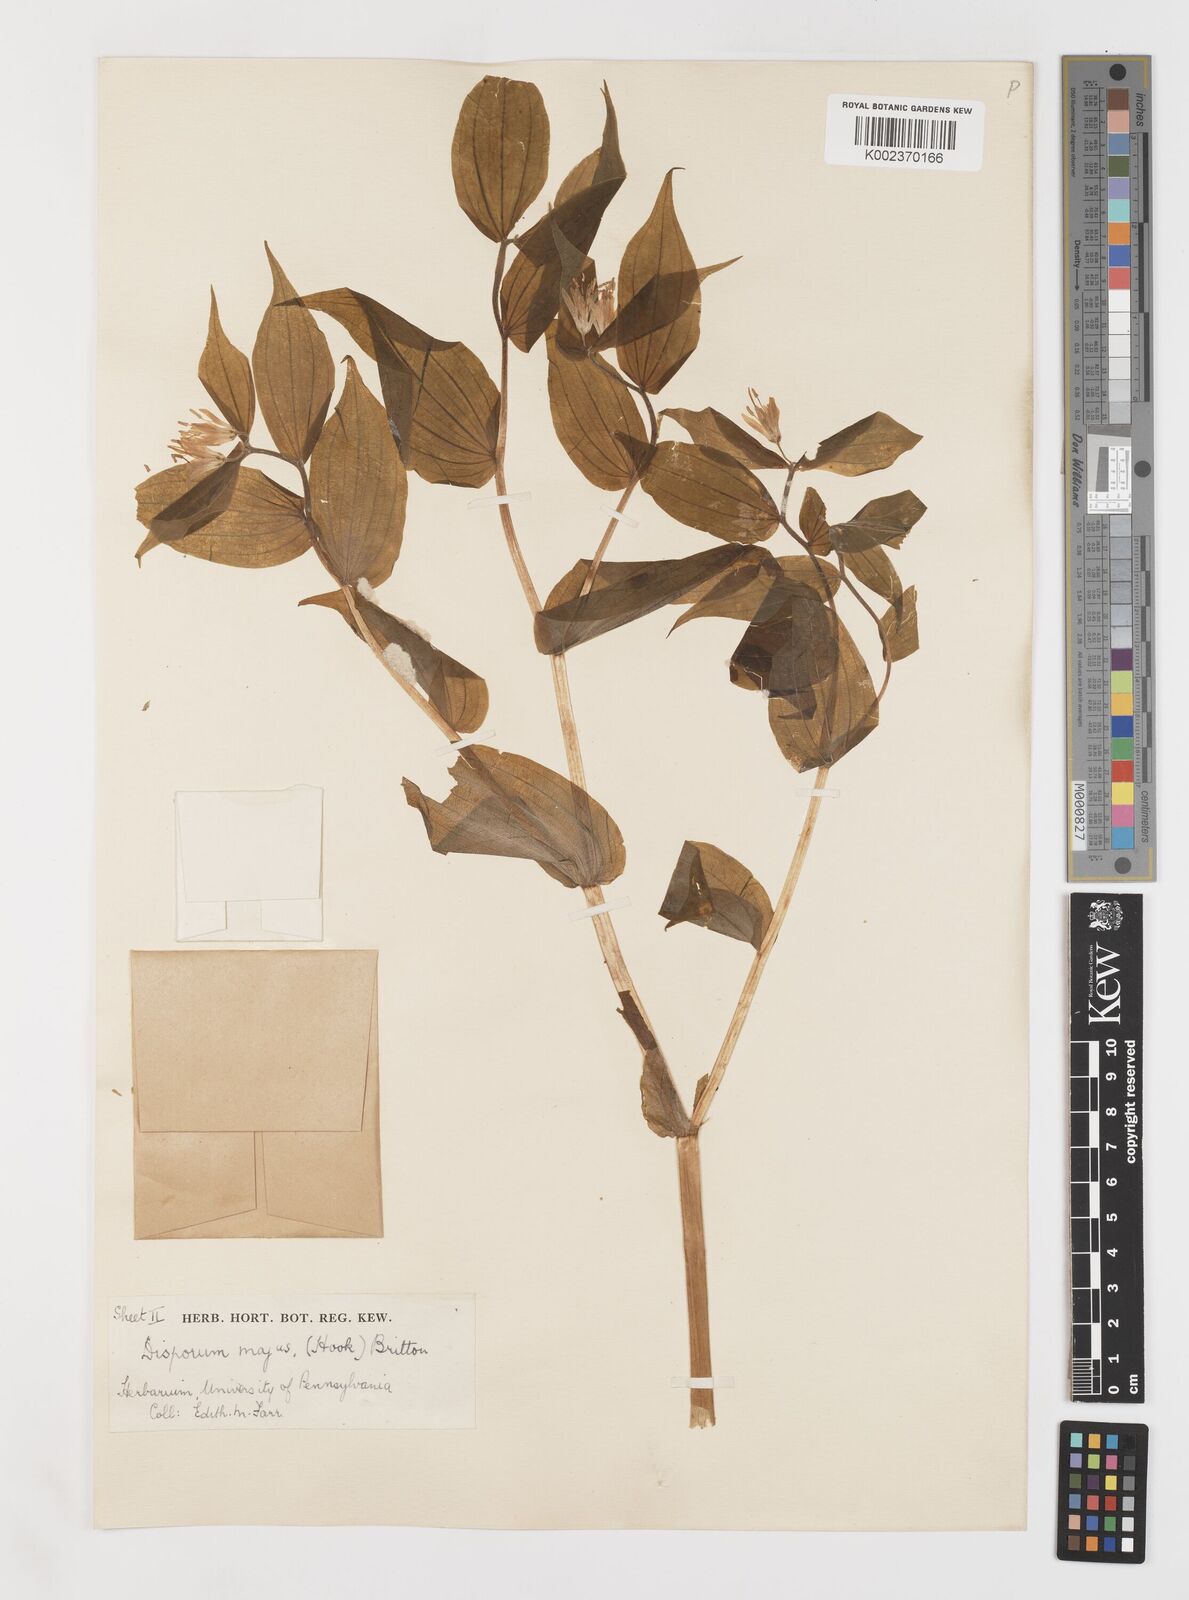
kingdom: Plantae
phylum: Tracheophyta
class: Liliopsida
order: Liliales
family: Liliaceae
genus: Prosartes
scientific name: Prosartes trachycarpa
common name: Rough-fruit fairy-bells
